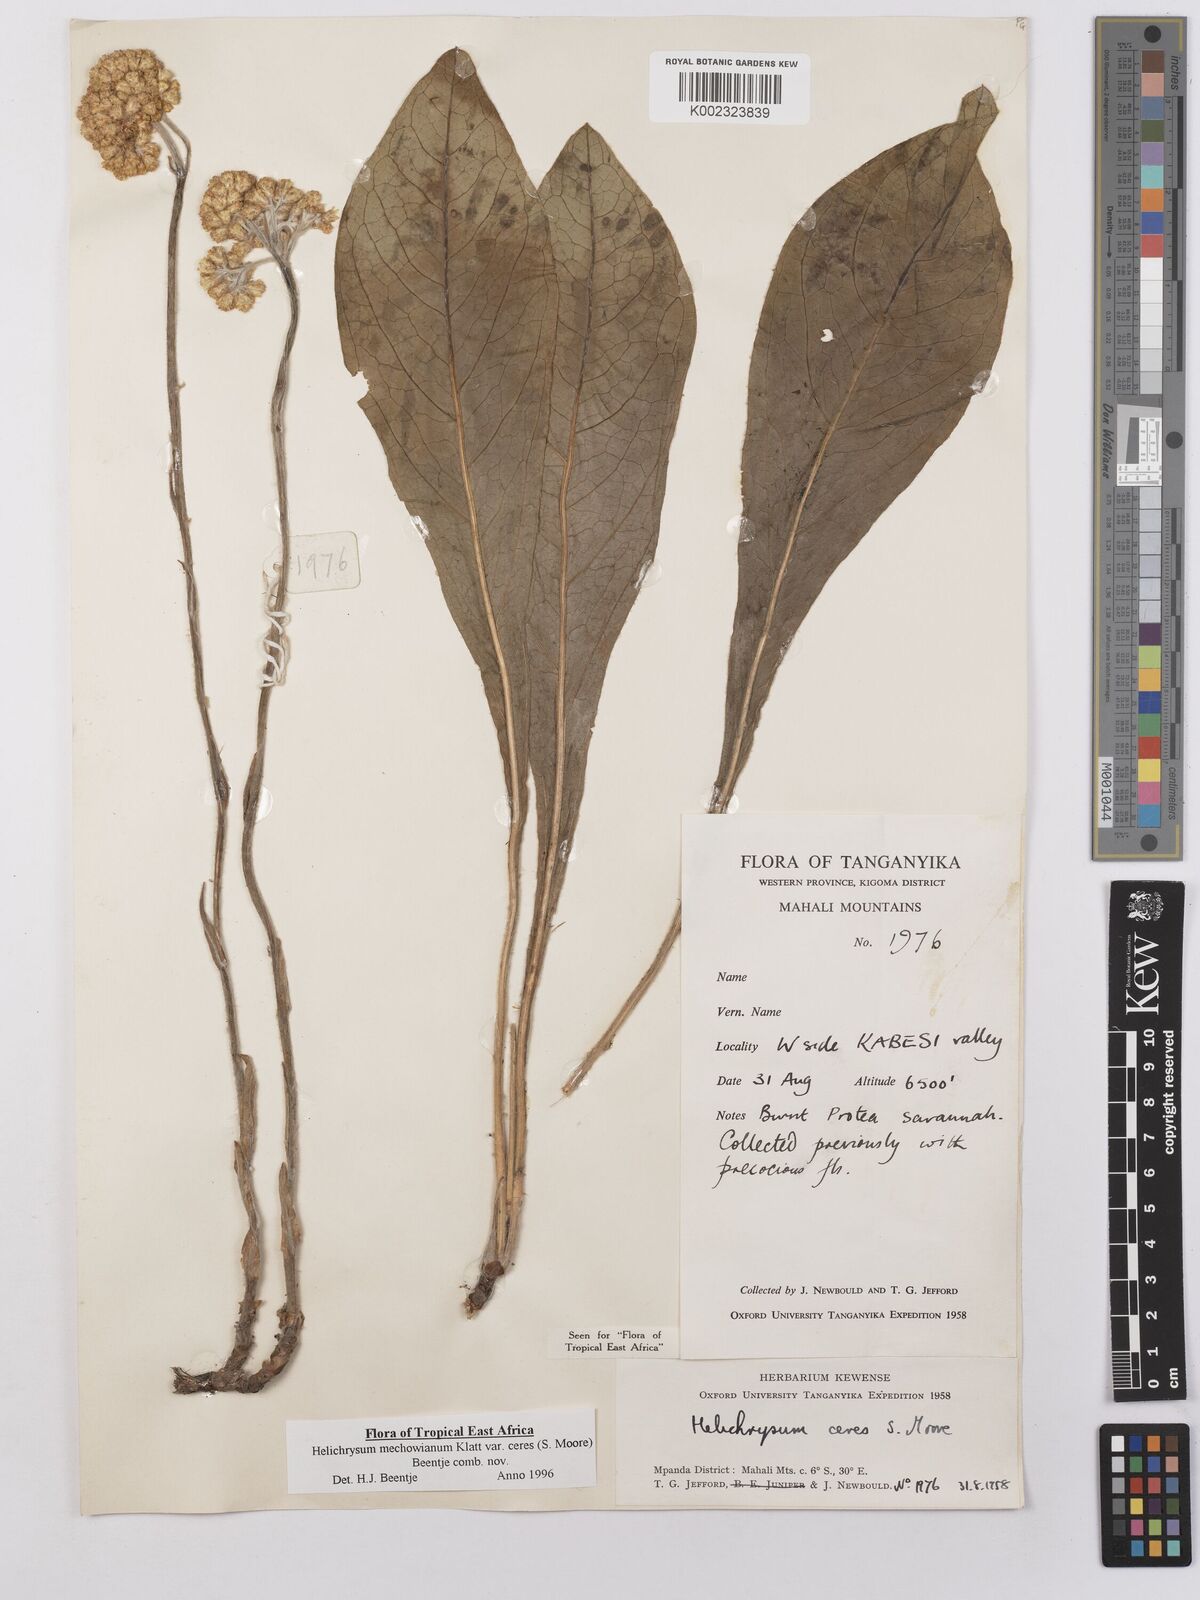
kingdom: Plantae
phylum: Tracheophyta
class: Magnoliopsida
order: Asterales
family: Asteraceae
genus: Helichrysum
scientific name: Helichrysum mechowianum
